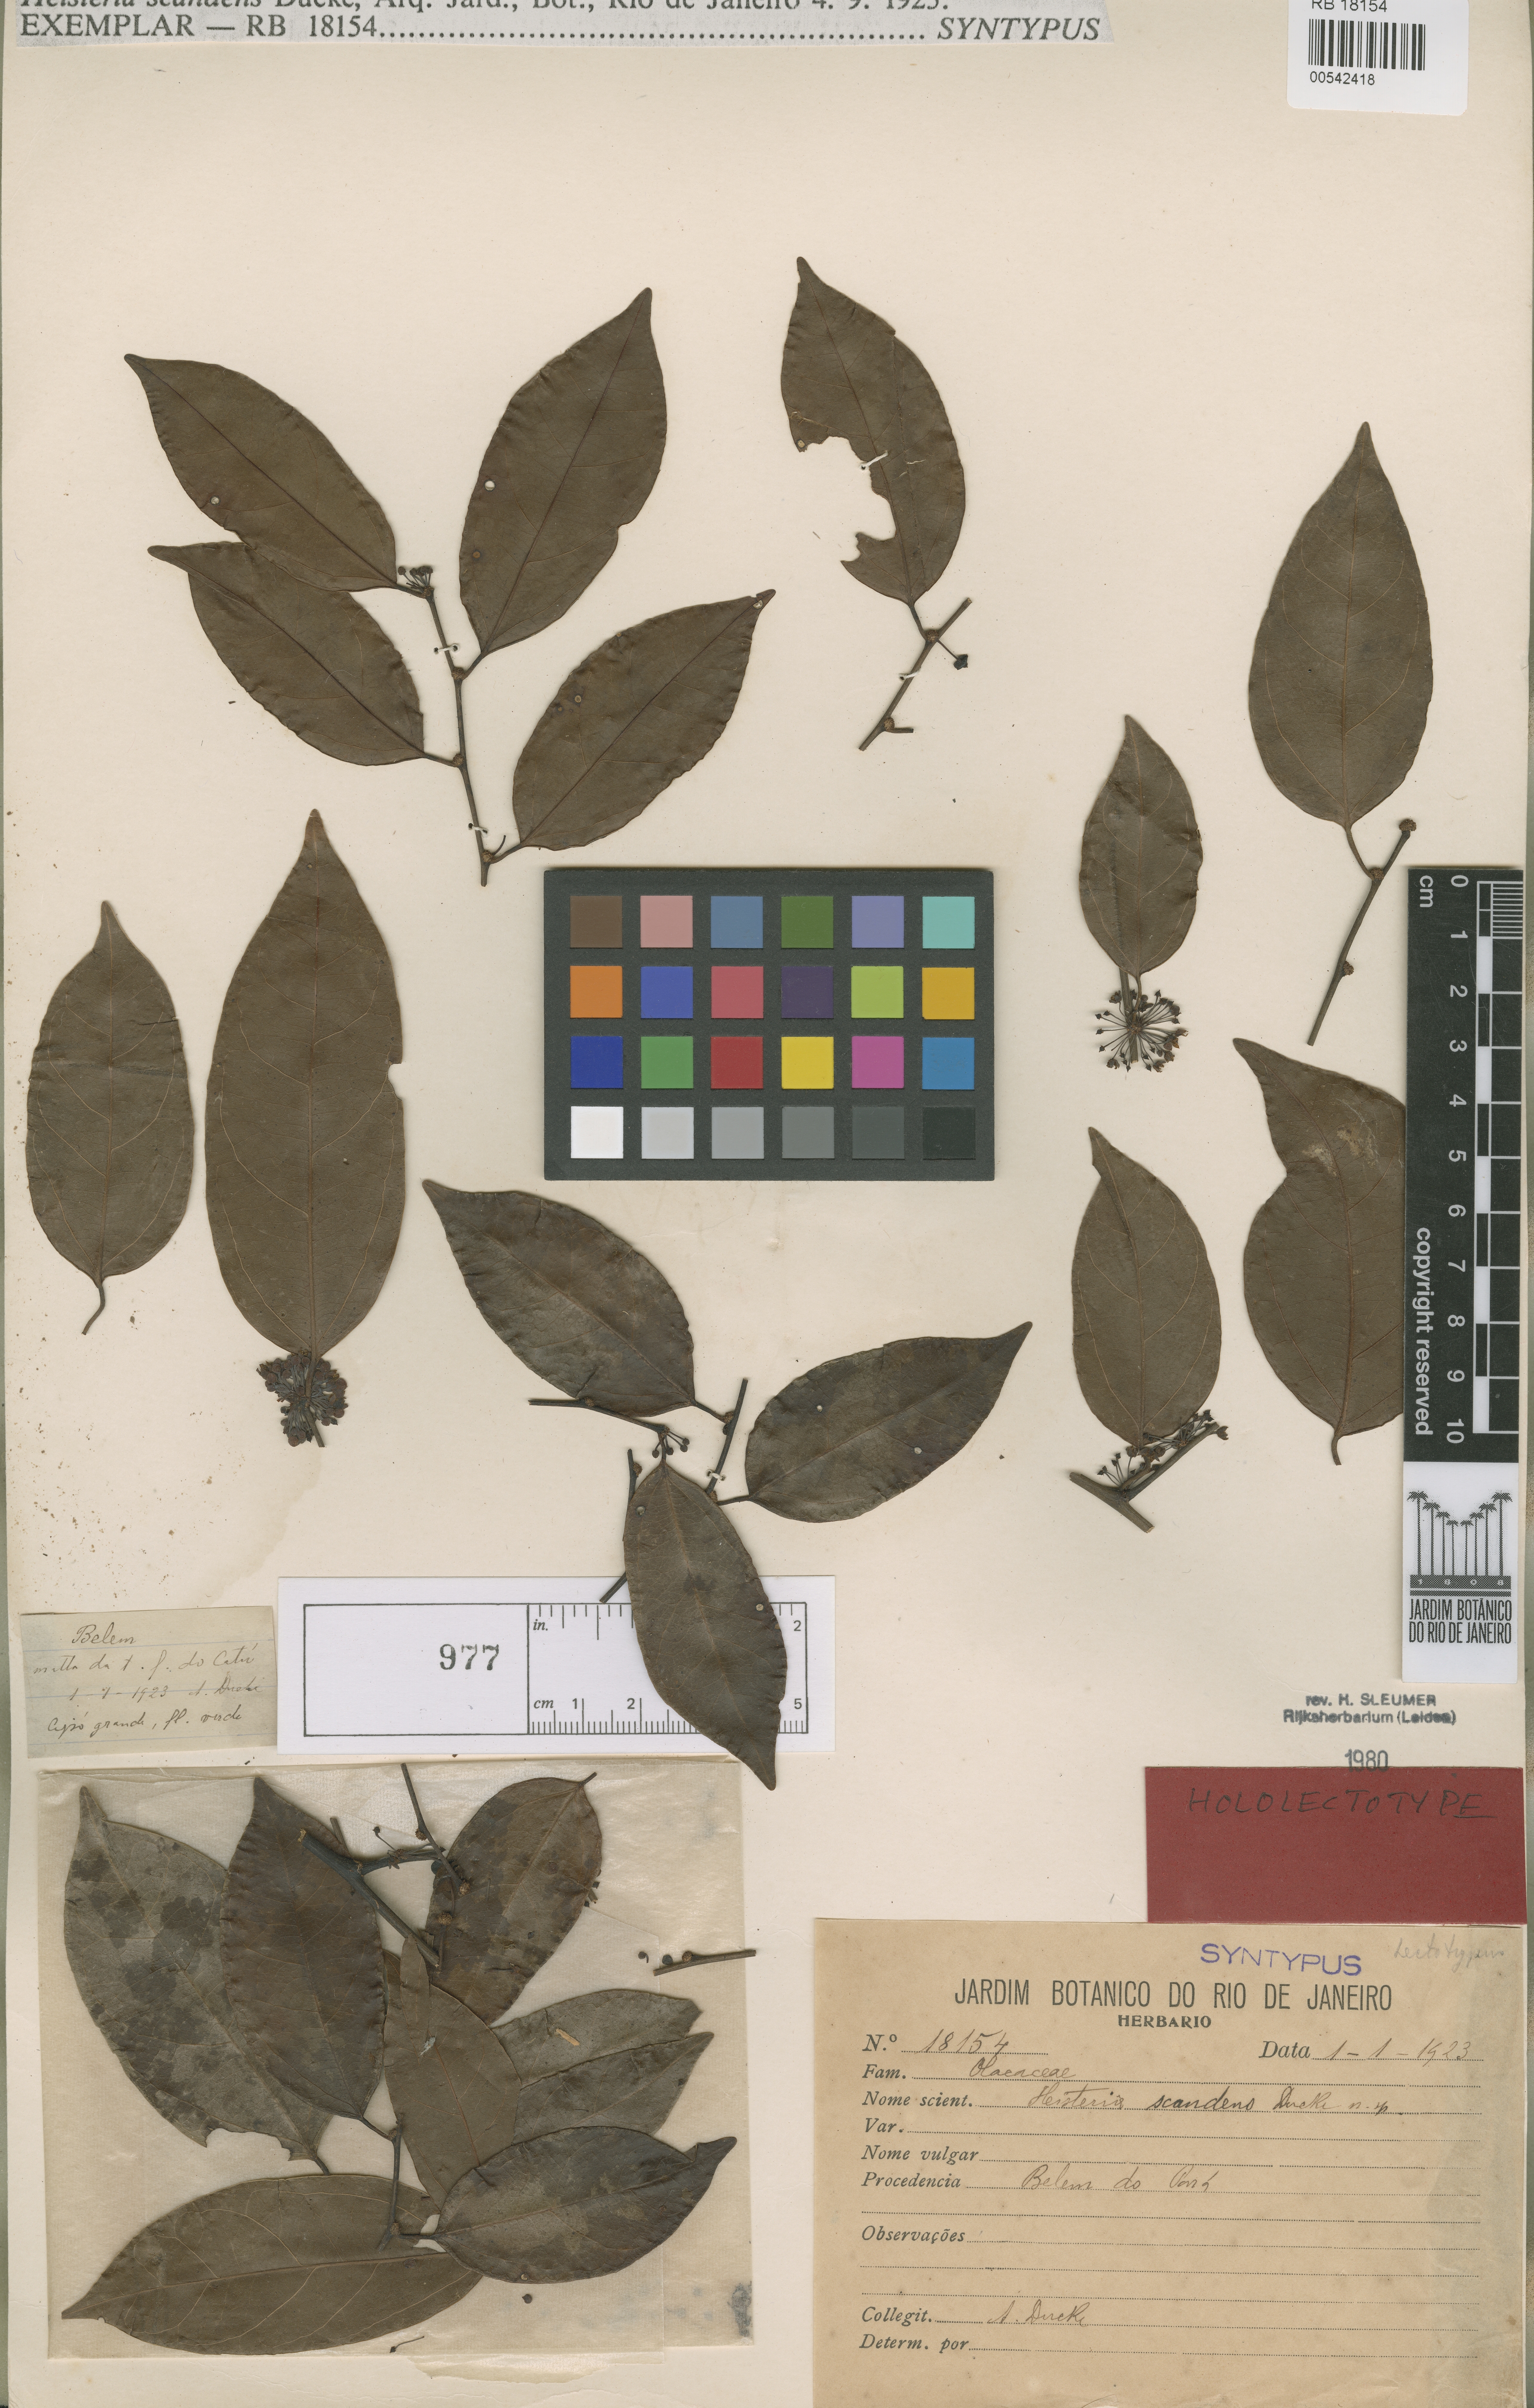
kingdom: Plantae
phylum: Tracheophyta
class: Magnoliopsida
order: Santalales
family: Erythropalaceae
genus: Heisteria
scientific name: Heisteria scandens
